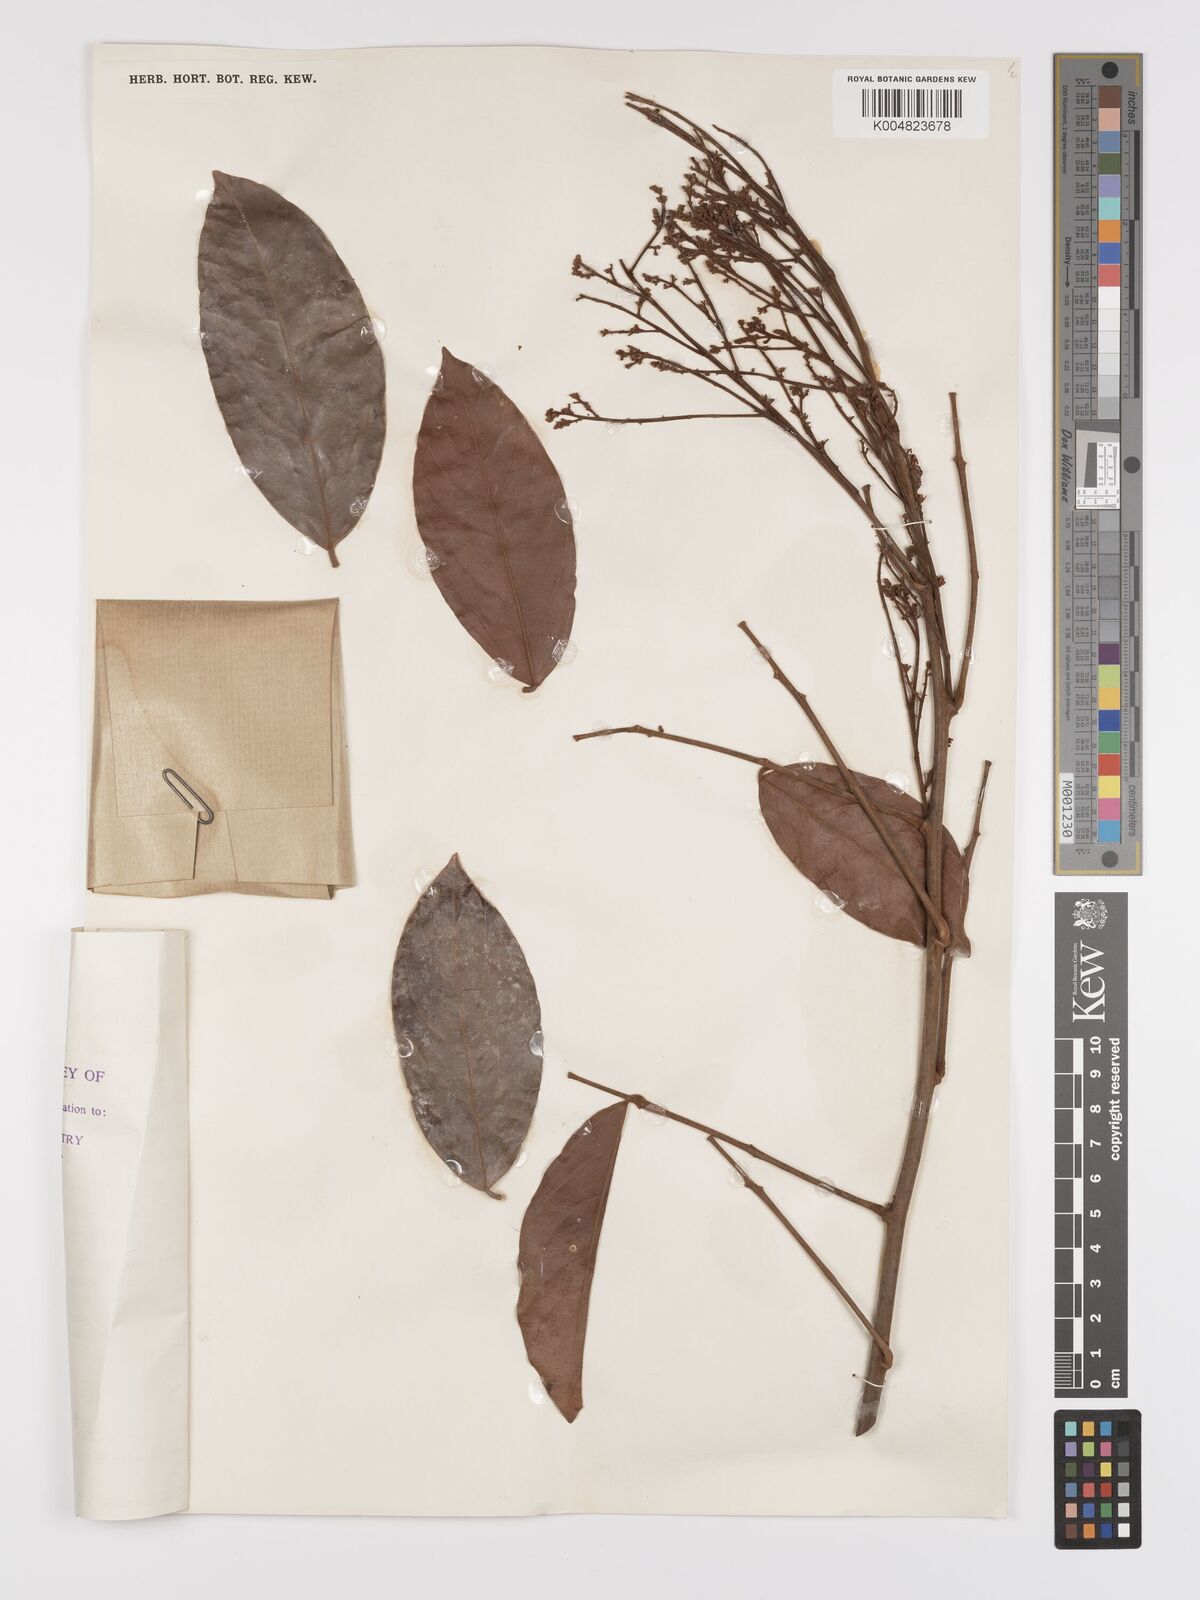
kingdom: Plantae
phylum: Tracheophyta
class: Magnoliopsida
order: Oxalidales
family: Connaraceae
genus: Connarus
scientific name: Connarus semidecandrus
